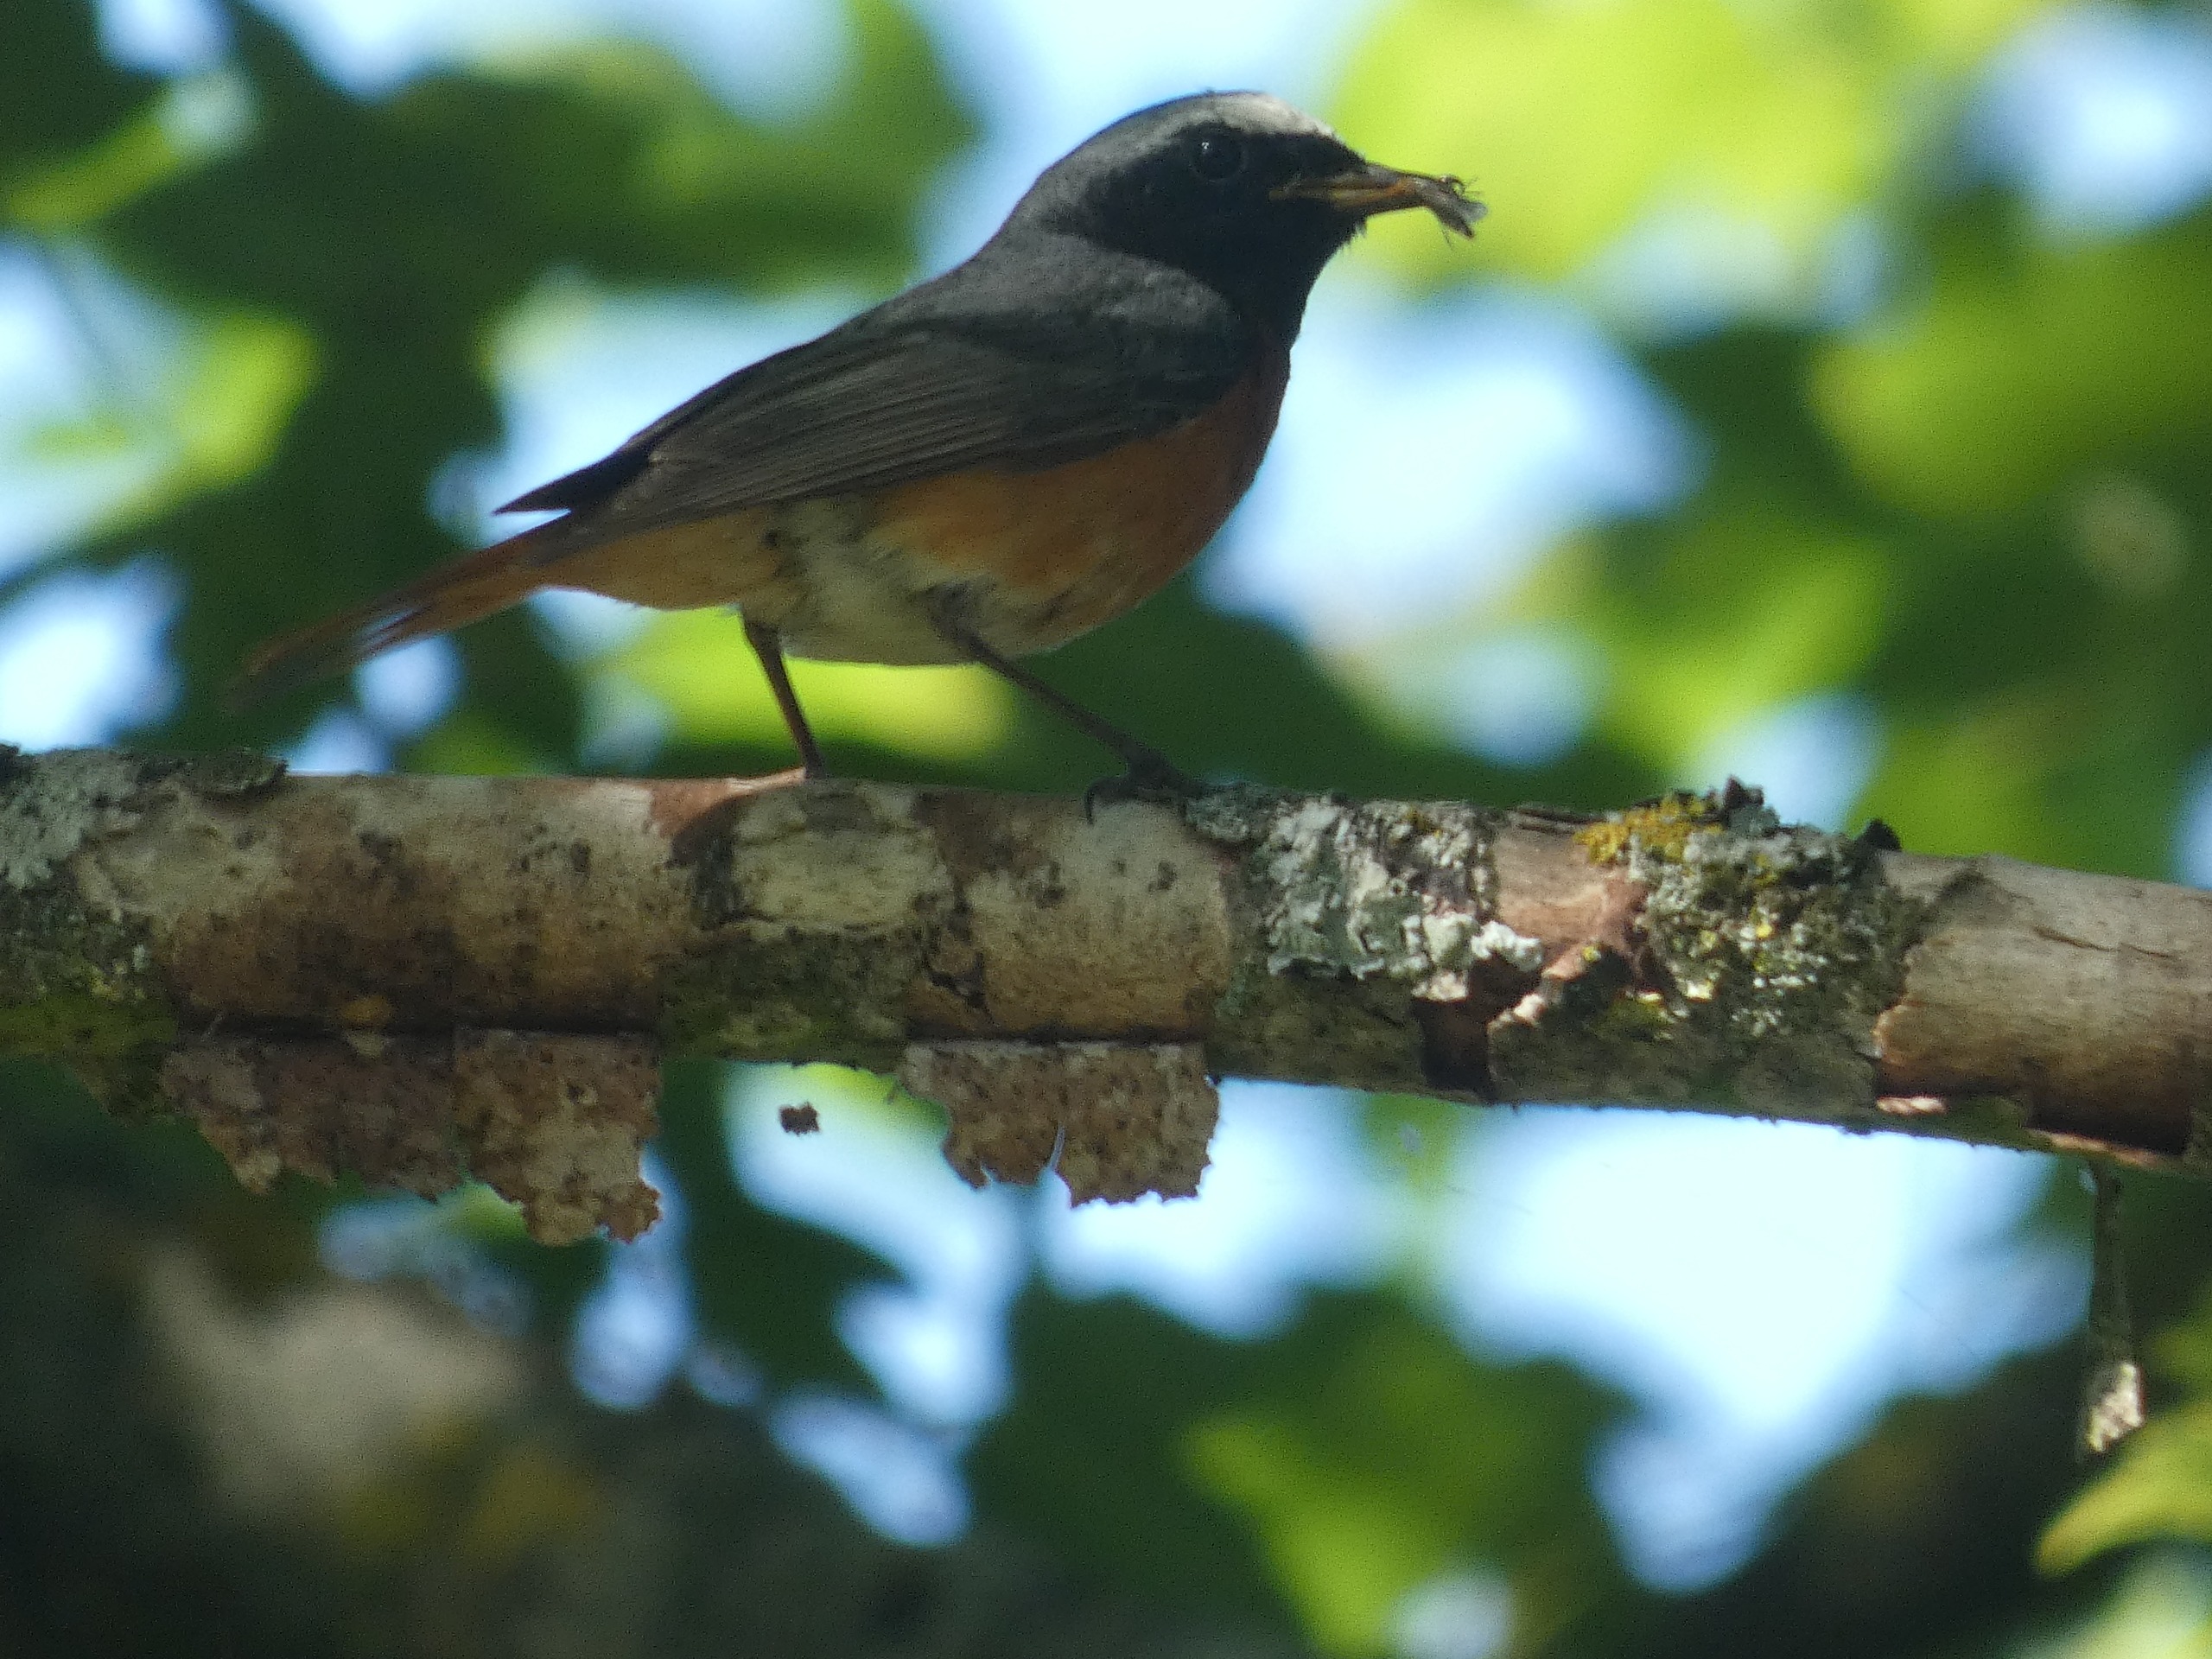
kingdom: Animalia
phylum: Chordata
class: Aves
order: Passeriformes
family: Muscicapidae
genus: Phoenicurus
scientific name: Phoenicurus phoenicurus
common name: Rødstjert
